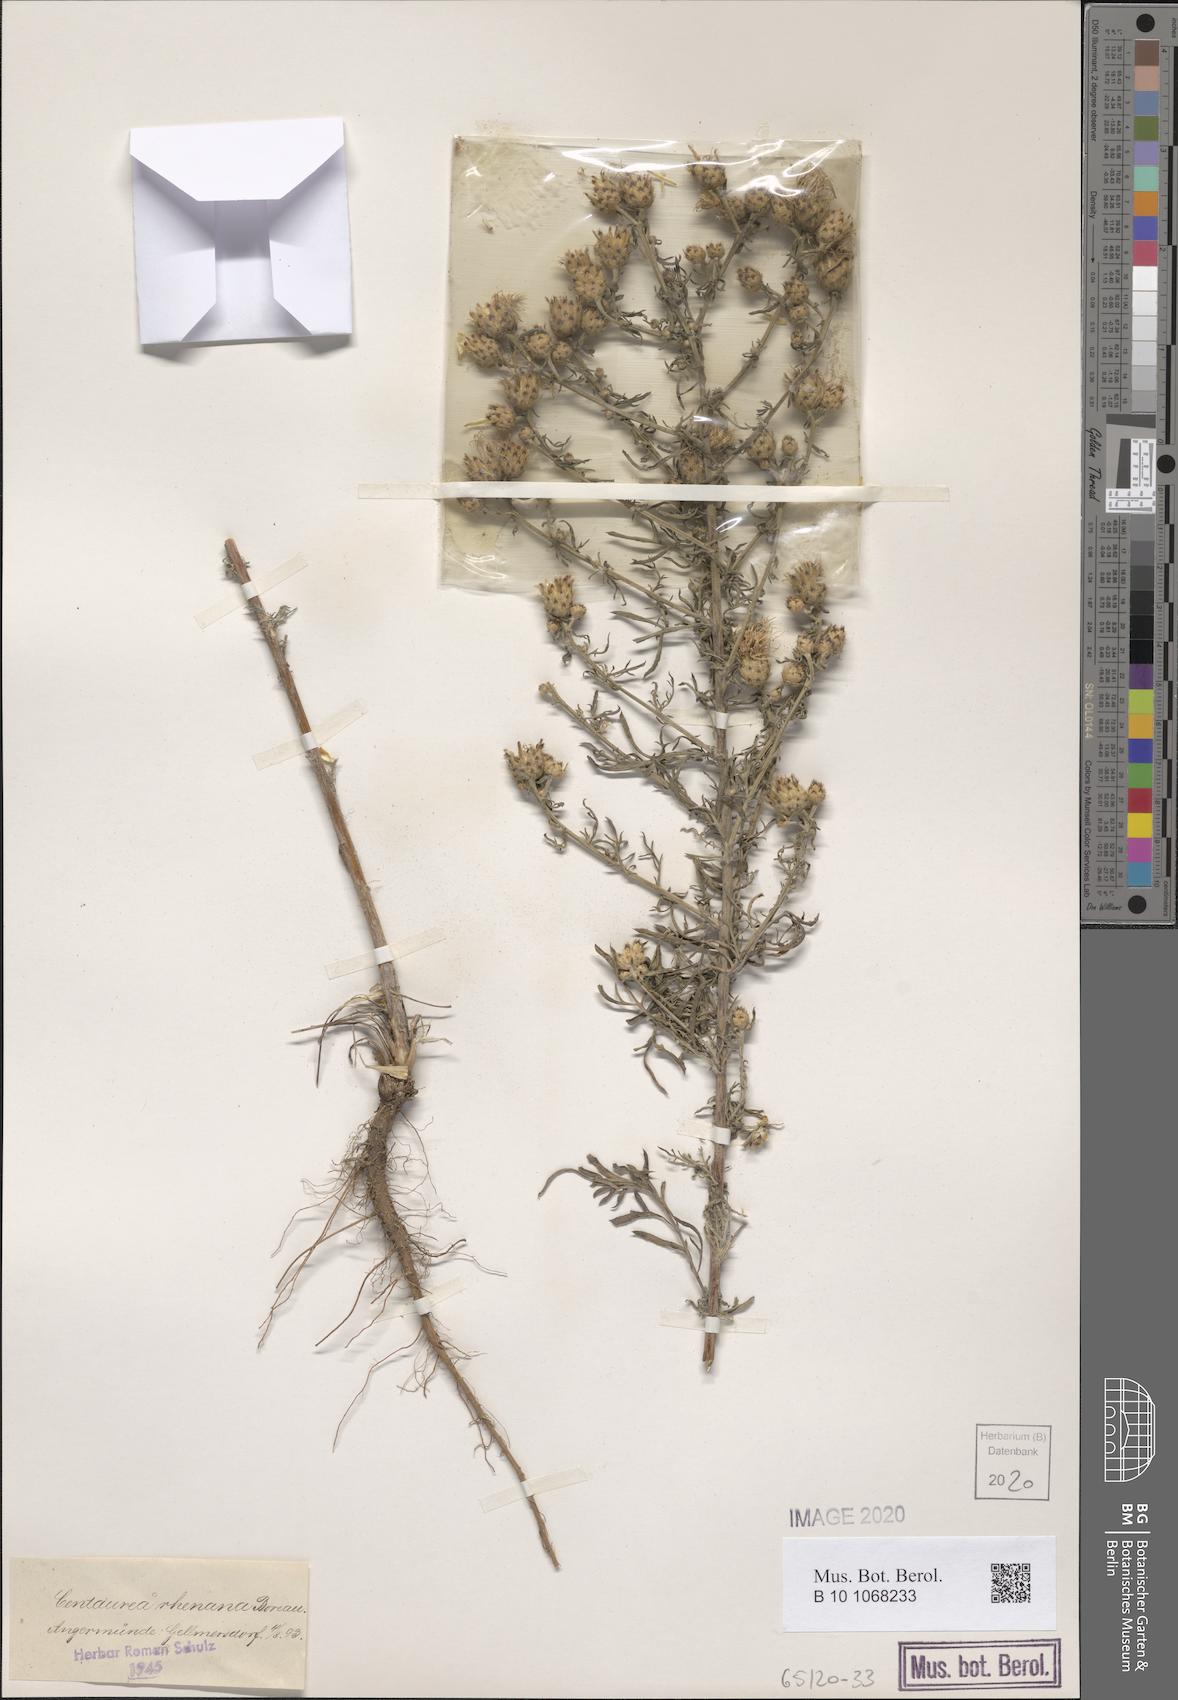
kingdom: Plantae
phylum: Tracheophyta
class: Magnoliopsida
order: Asterales
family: Asteraceae
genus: Centaurea
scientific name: Centaurea stoebe
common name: Spotted knapweed
